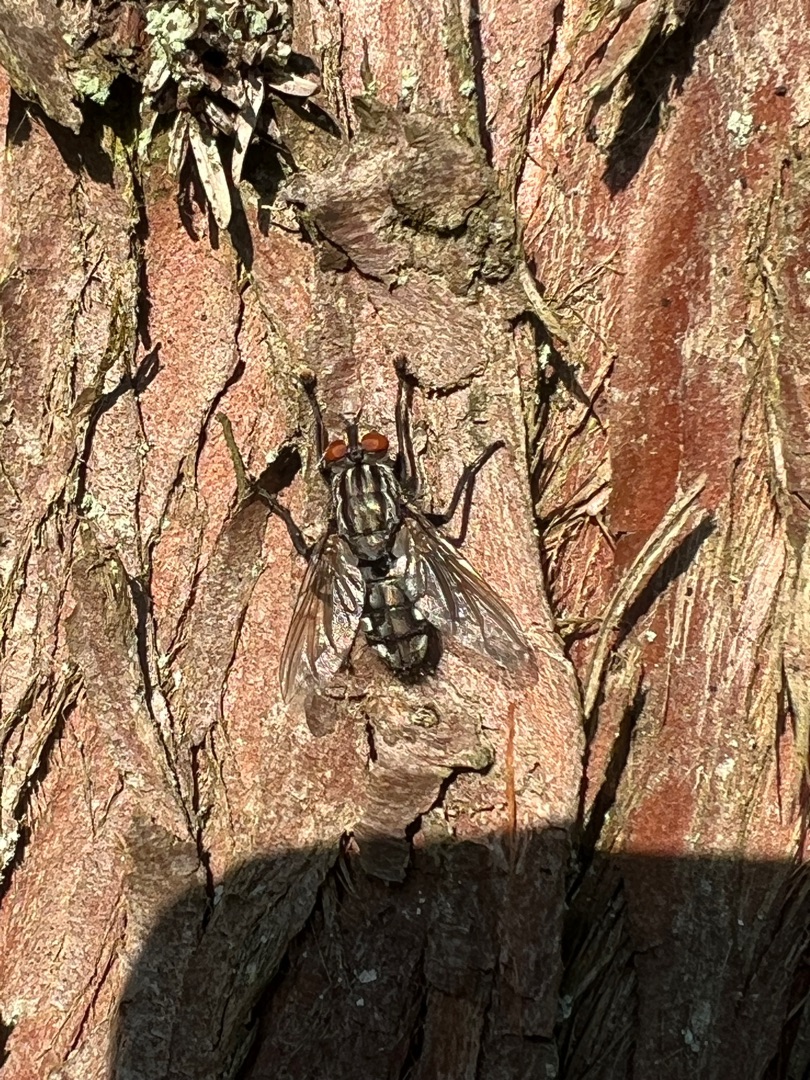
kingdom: Animalia
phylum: Arthropoda
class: Insecta
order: Diptera
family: Sarcophagidae
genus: Sarcophaga
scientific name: Sarcophaga
